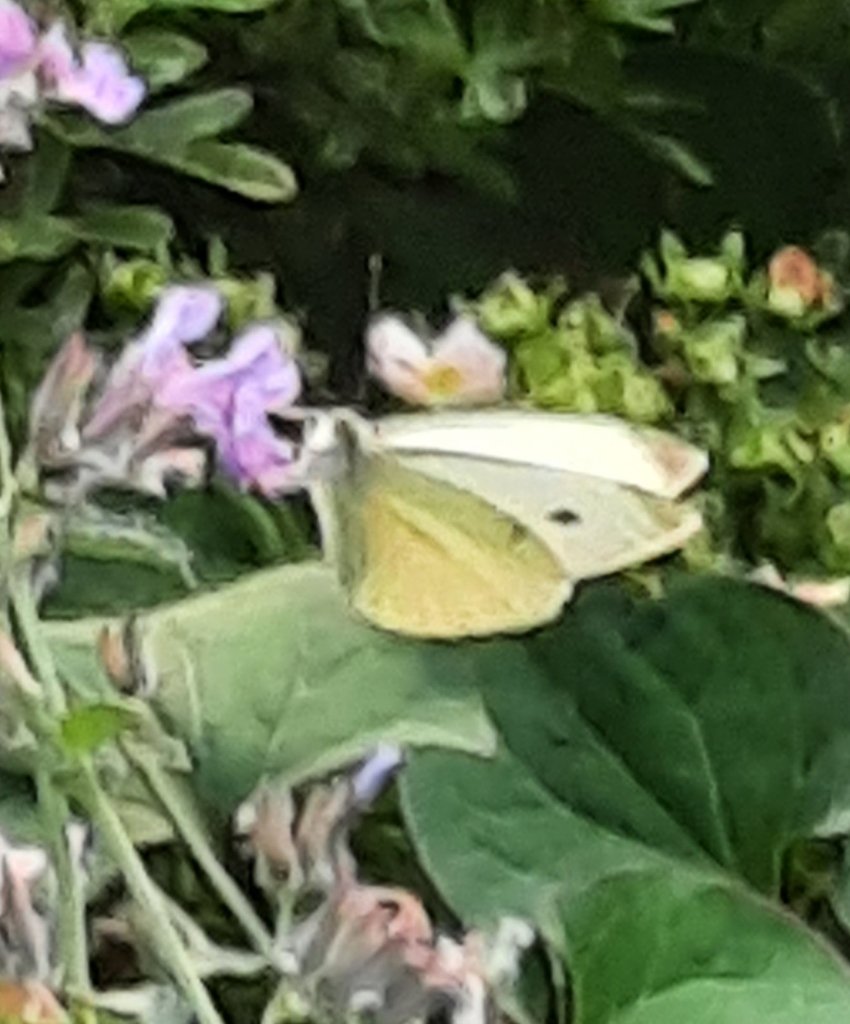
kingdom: Animalia
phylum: Arthropoda
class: Insecta
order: Lepidoptera
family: Pieridae
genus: Pieris
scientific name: Pieris rapae
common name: Cabbage White
